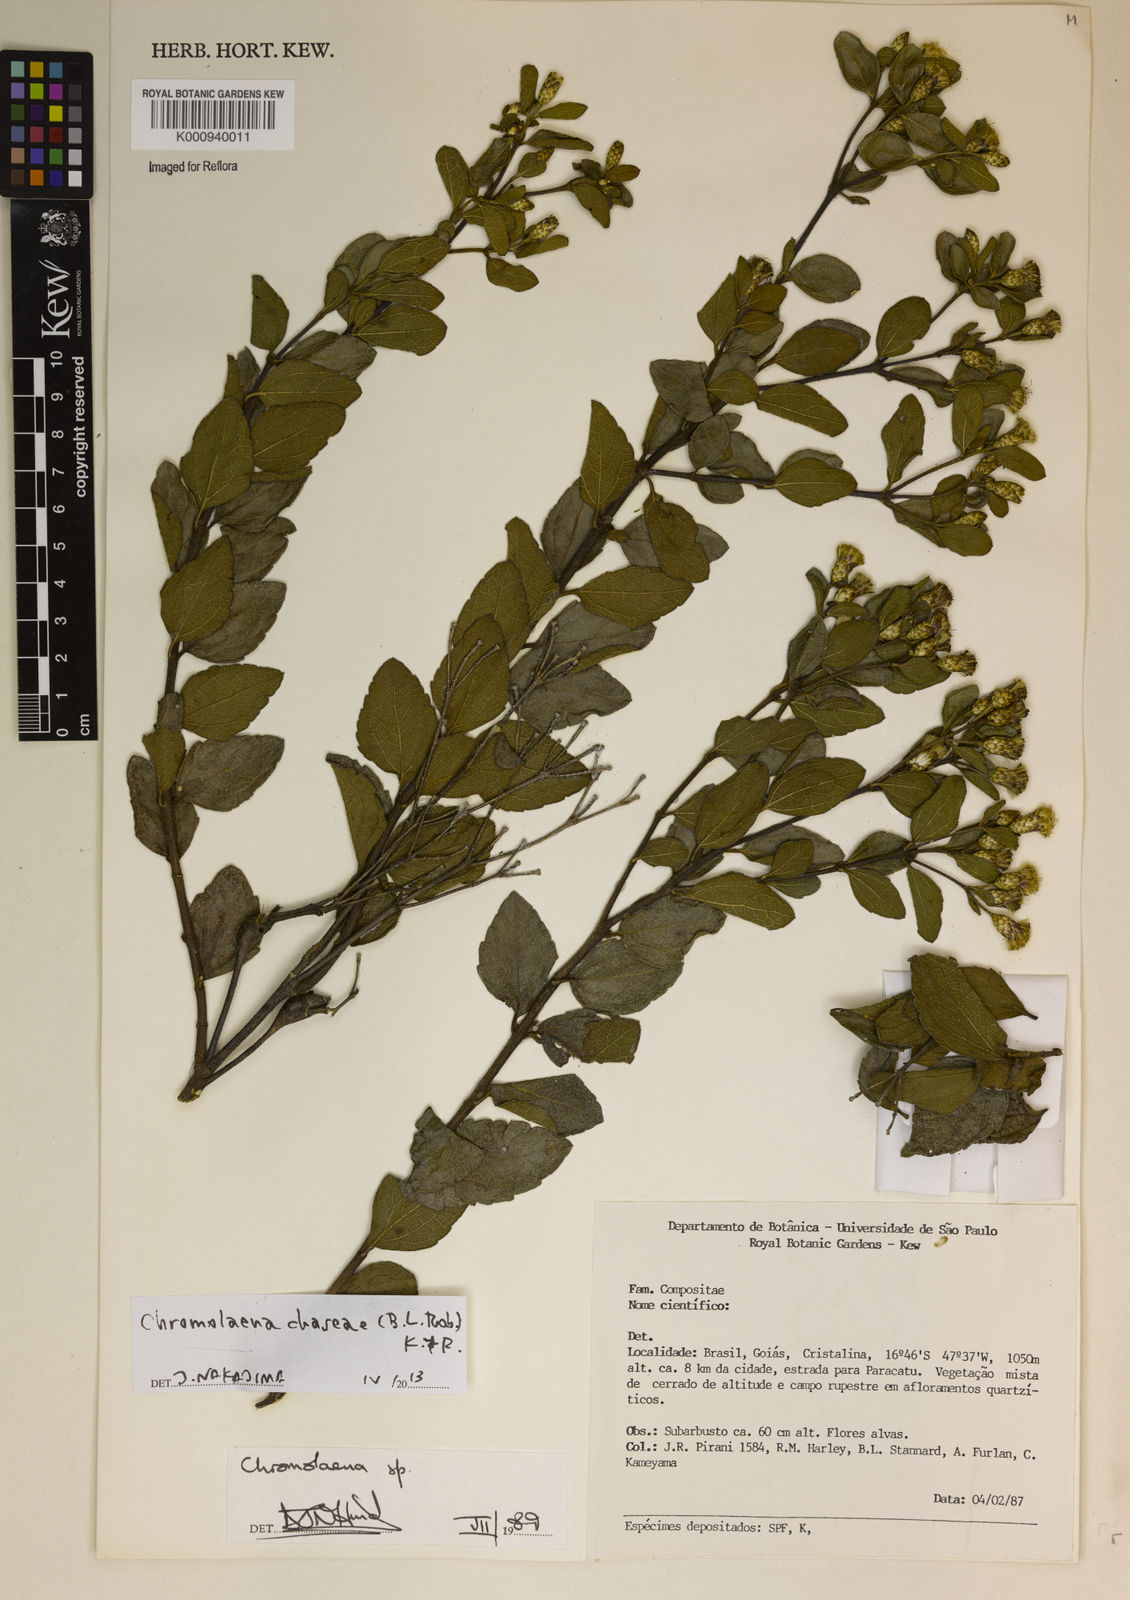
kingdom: Plantae
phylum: Tracheophyta
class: Magnoliopsida
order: Asterales
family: Asteraceae
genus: Chromolaena
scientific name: Chromolaena chaseae
